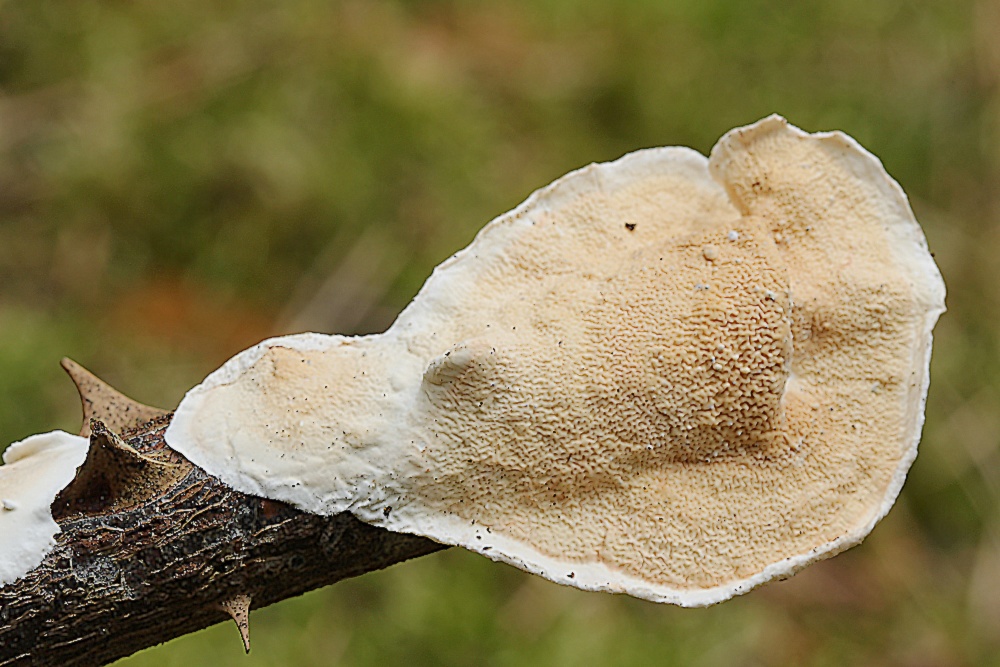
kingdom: Fungi
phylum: Basidiomycota
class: Agaricomycetes
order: Polyporales
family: Irpicaceae
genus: Byssomerulius
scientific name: Byssomerulius corium
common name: læder-åresvamp
